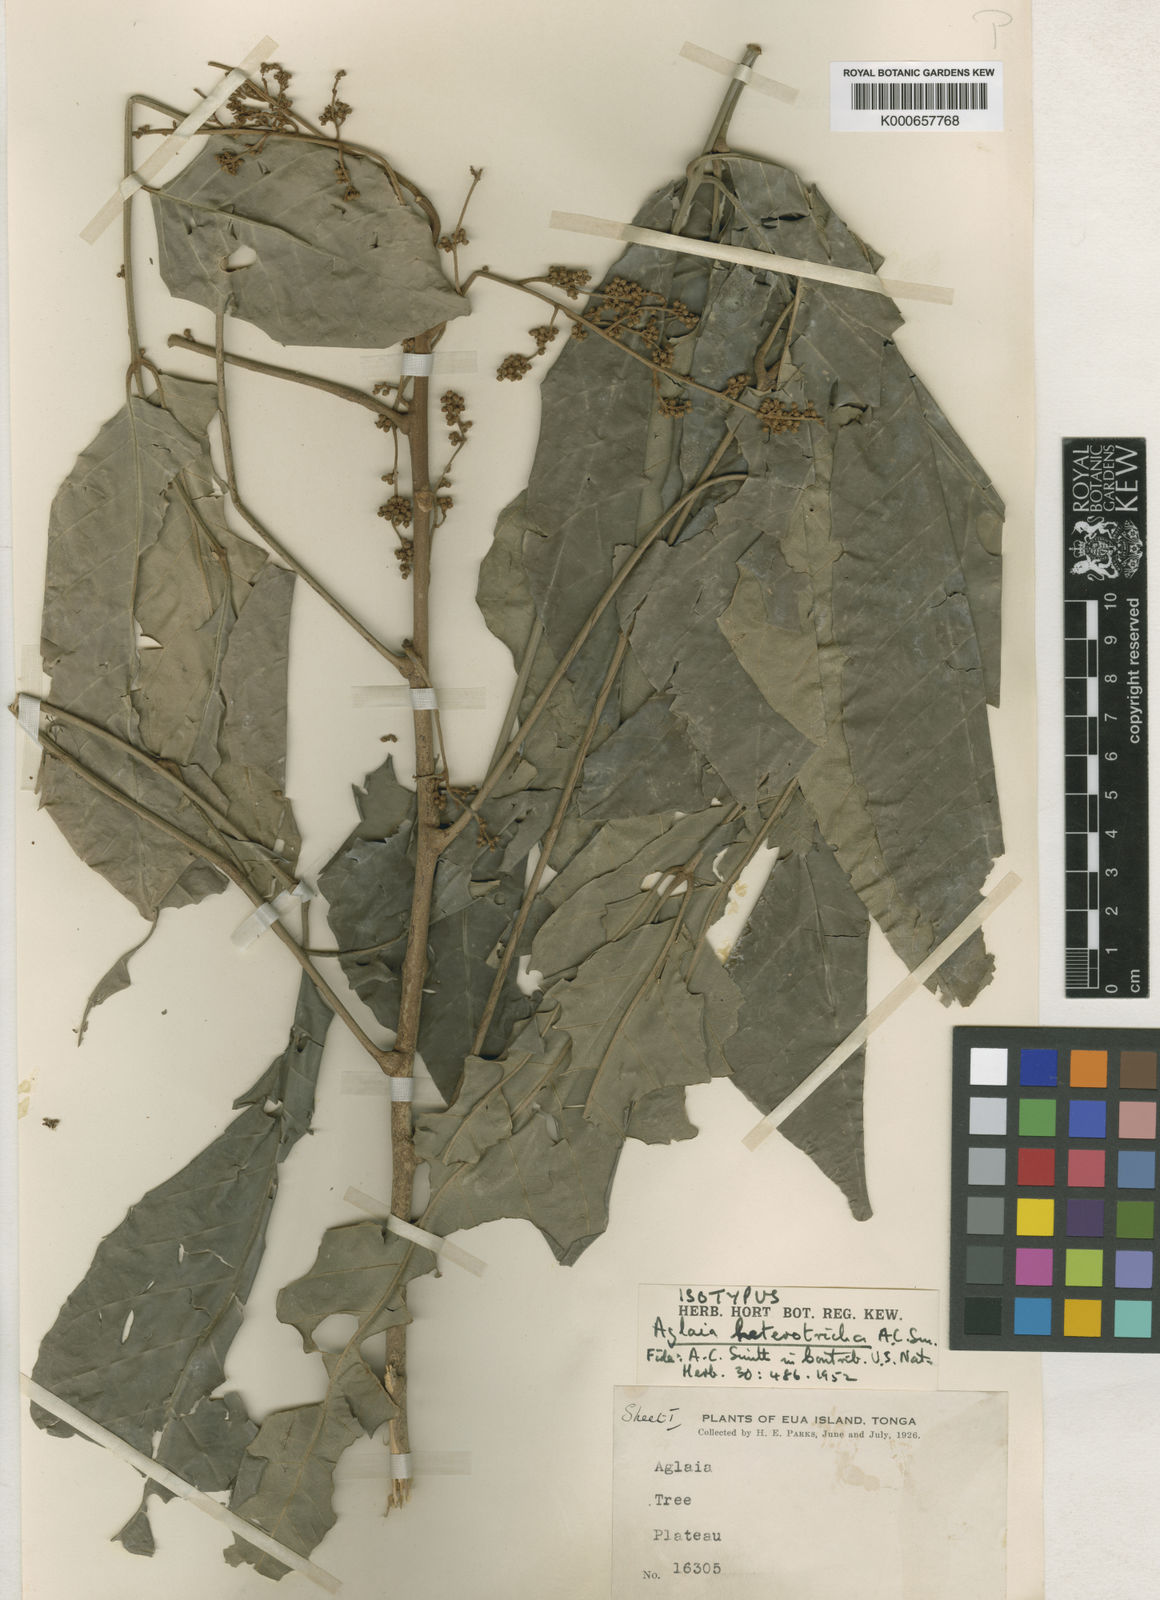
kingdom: Plantae
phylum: Tracheophyta
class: Magnoliopsida
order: Sapindales
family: Meliaceae
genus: Aglaia
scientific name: Aglaia saltatorum
